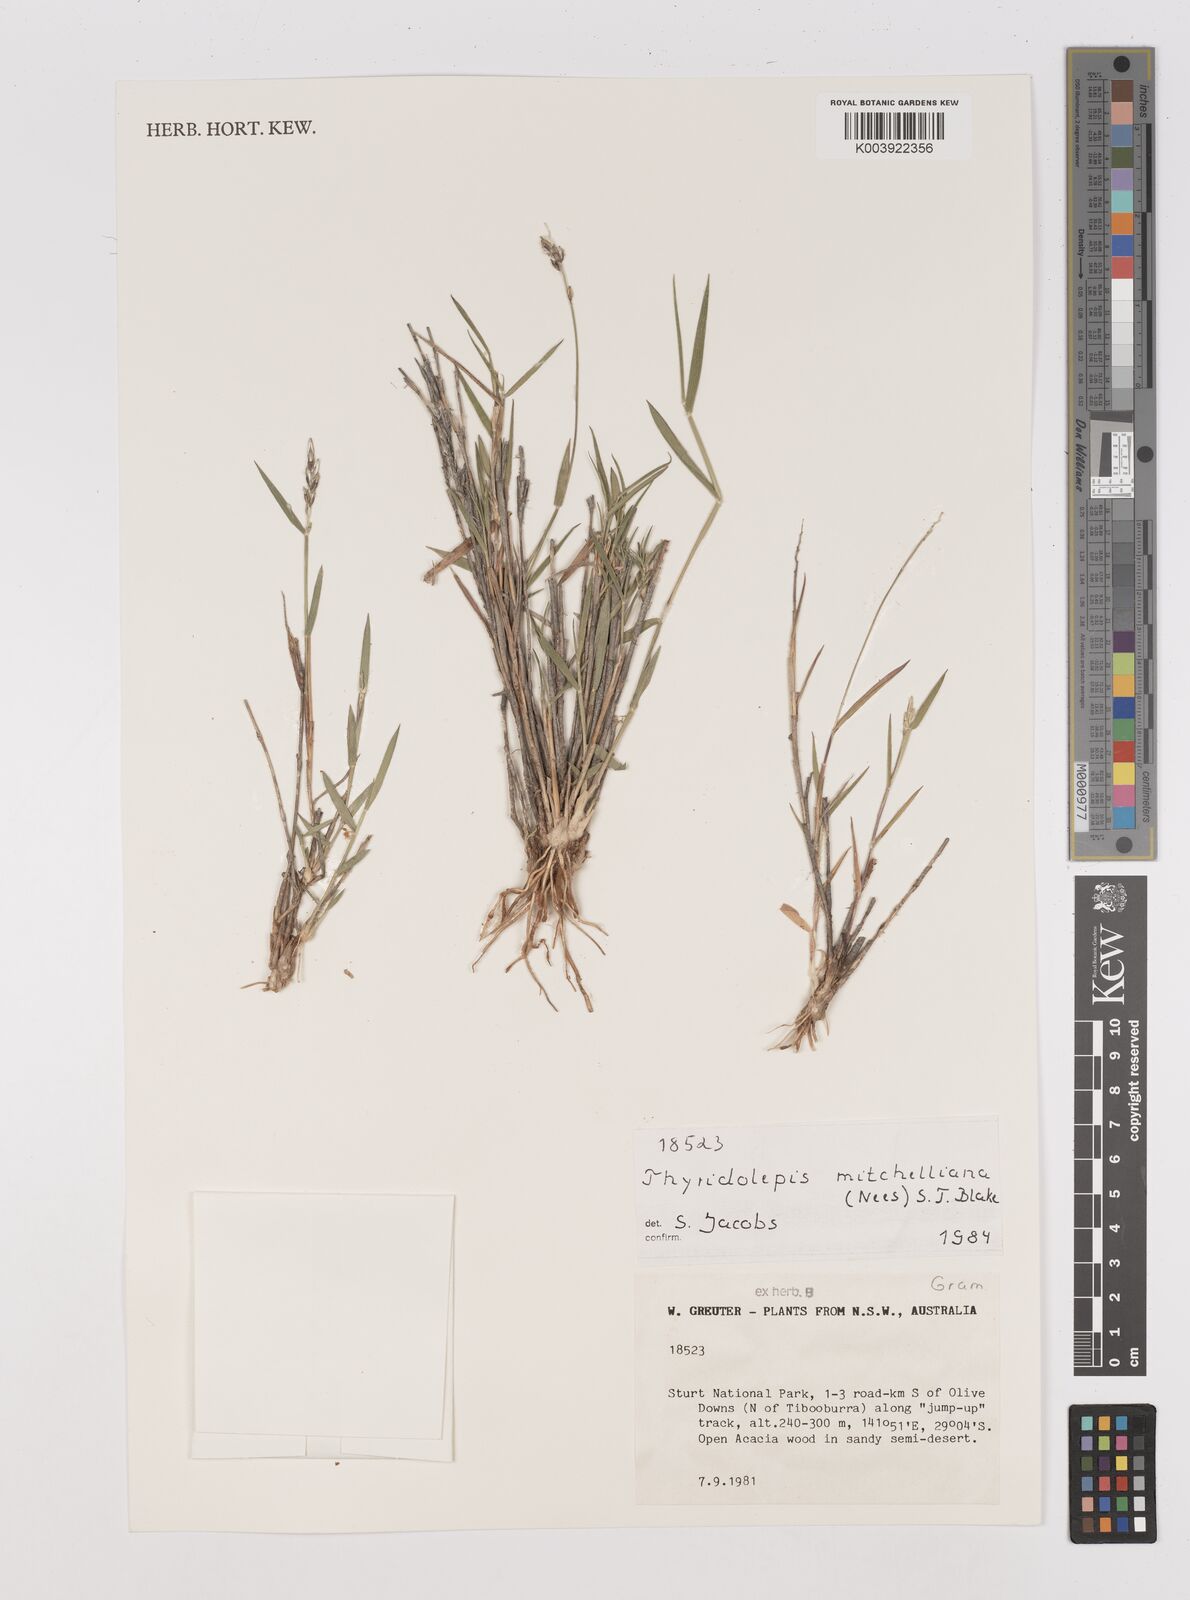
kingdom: Plantae
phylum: Tracheophyta
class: Liliopsida
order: Poales
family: Poaceae
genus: Thyridolepis
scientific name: Thyridolepis mitchelliana
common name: Rock tassel grass
